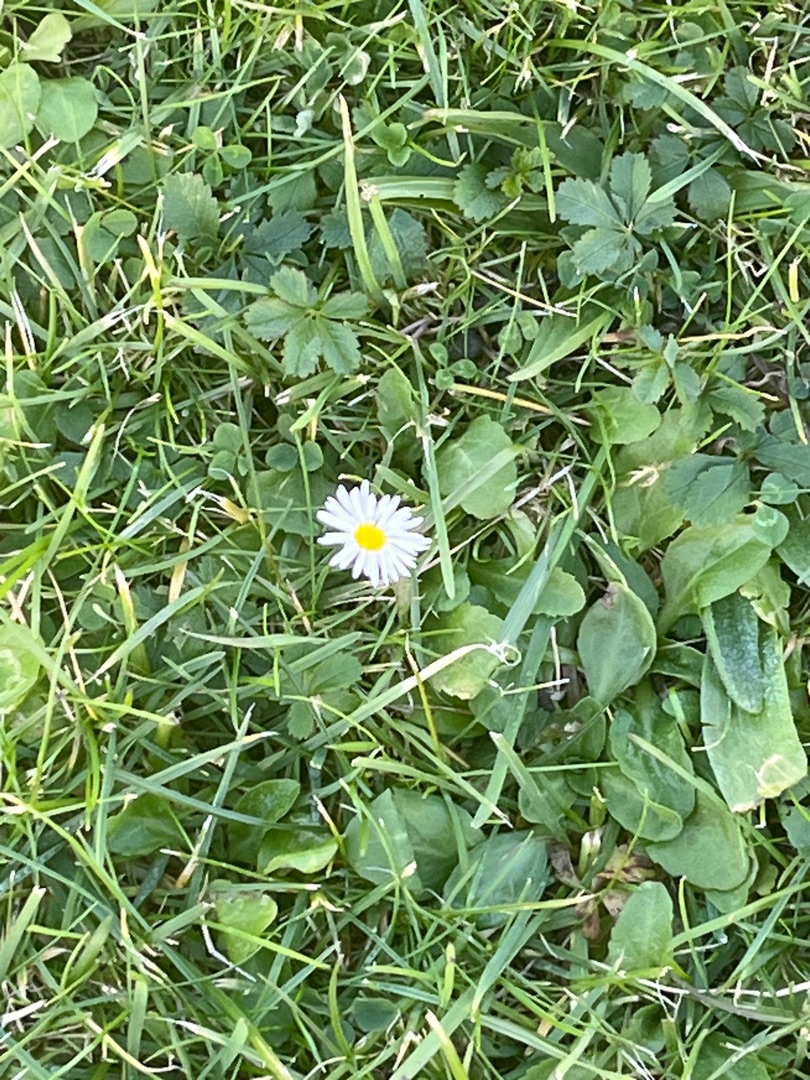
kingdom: Plantae
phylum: Tracheophyta
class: Magnoliopsida
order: Asterales
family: Asteraceae
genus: Bellis
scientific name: Bellis perennis
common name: Tusindfryd
